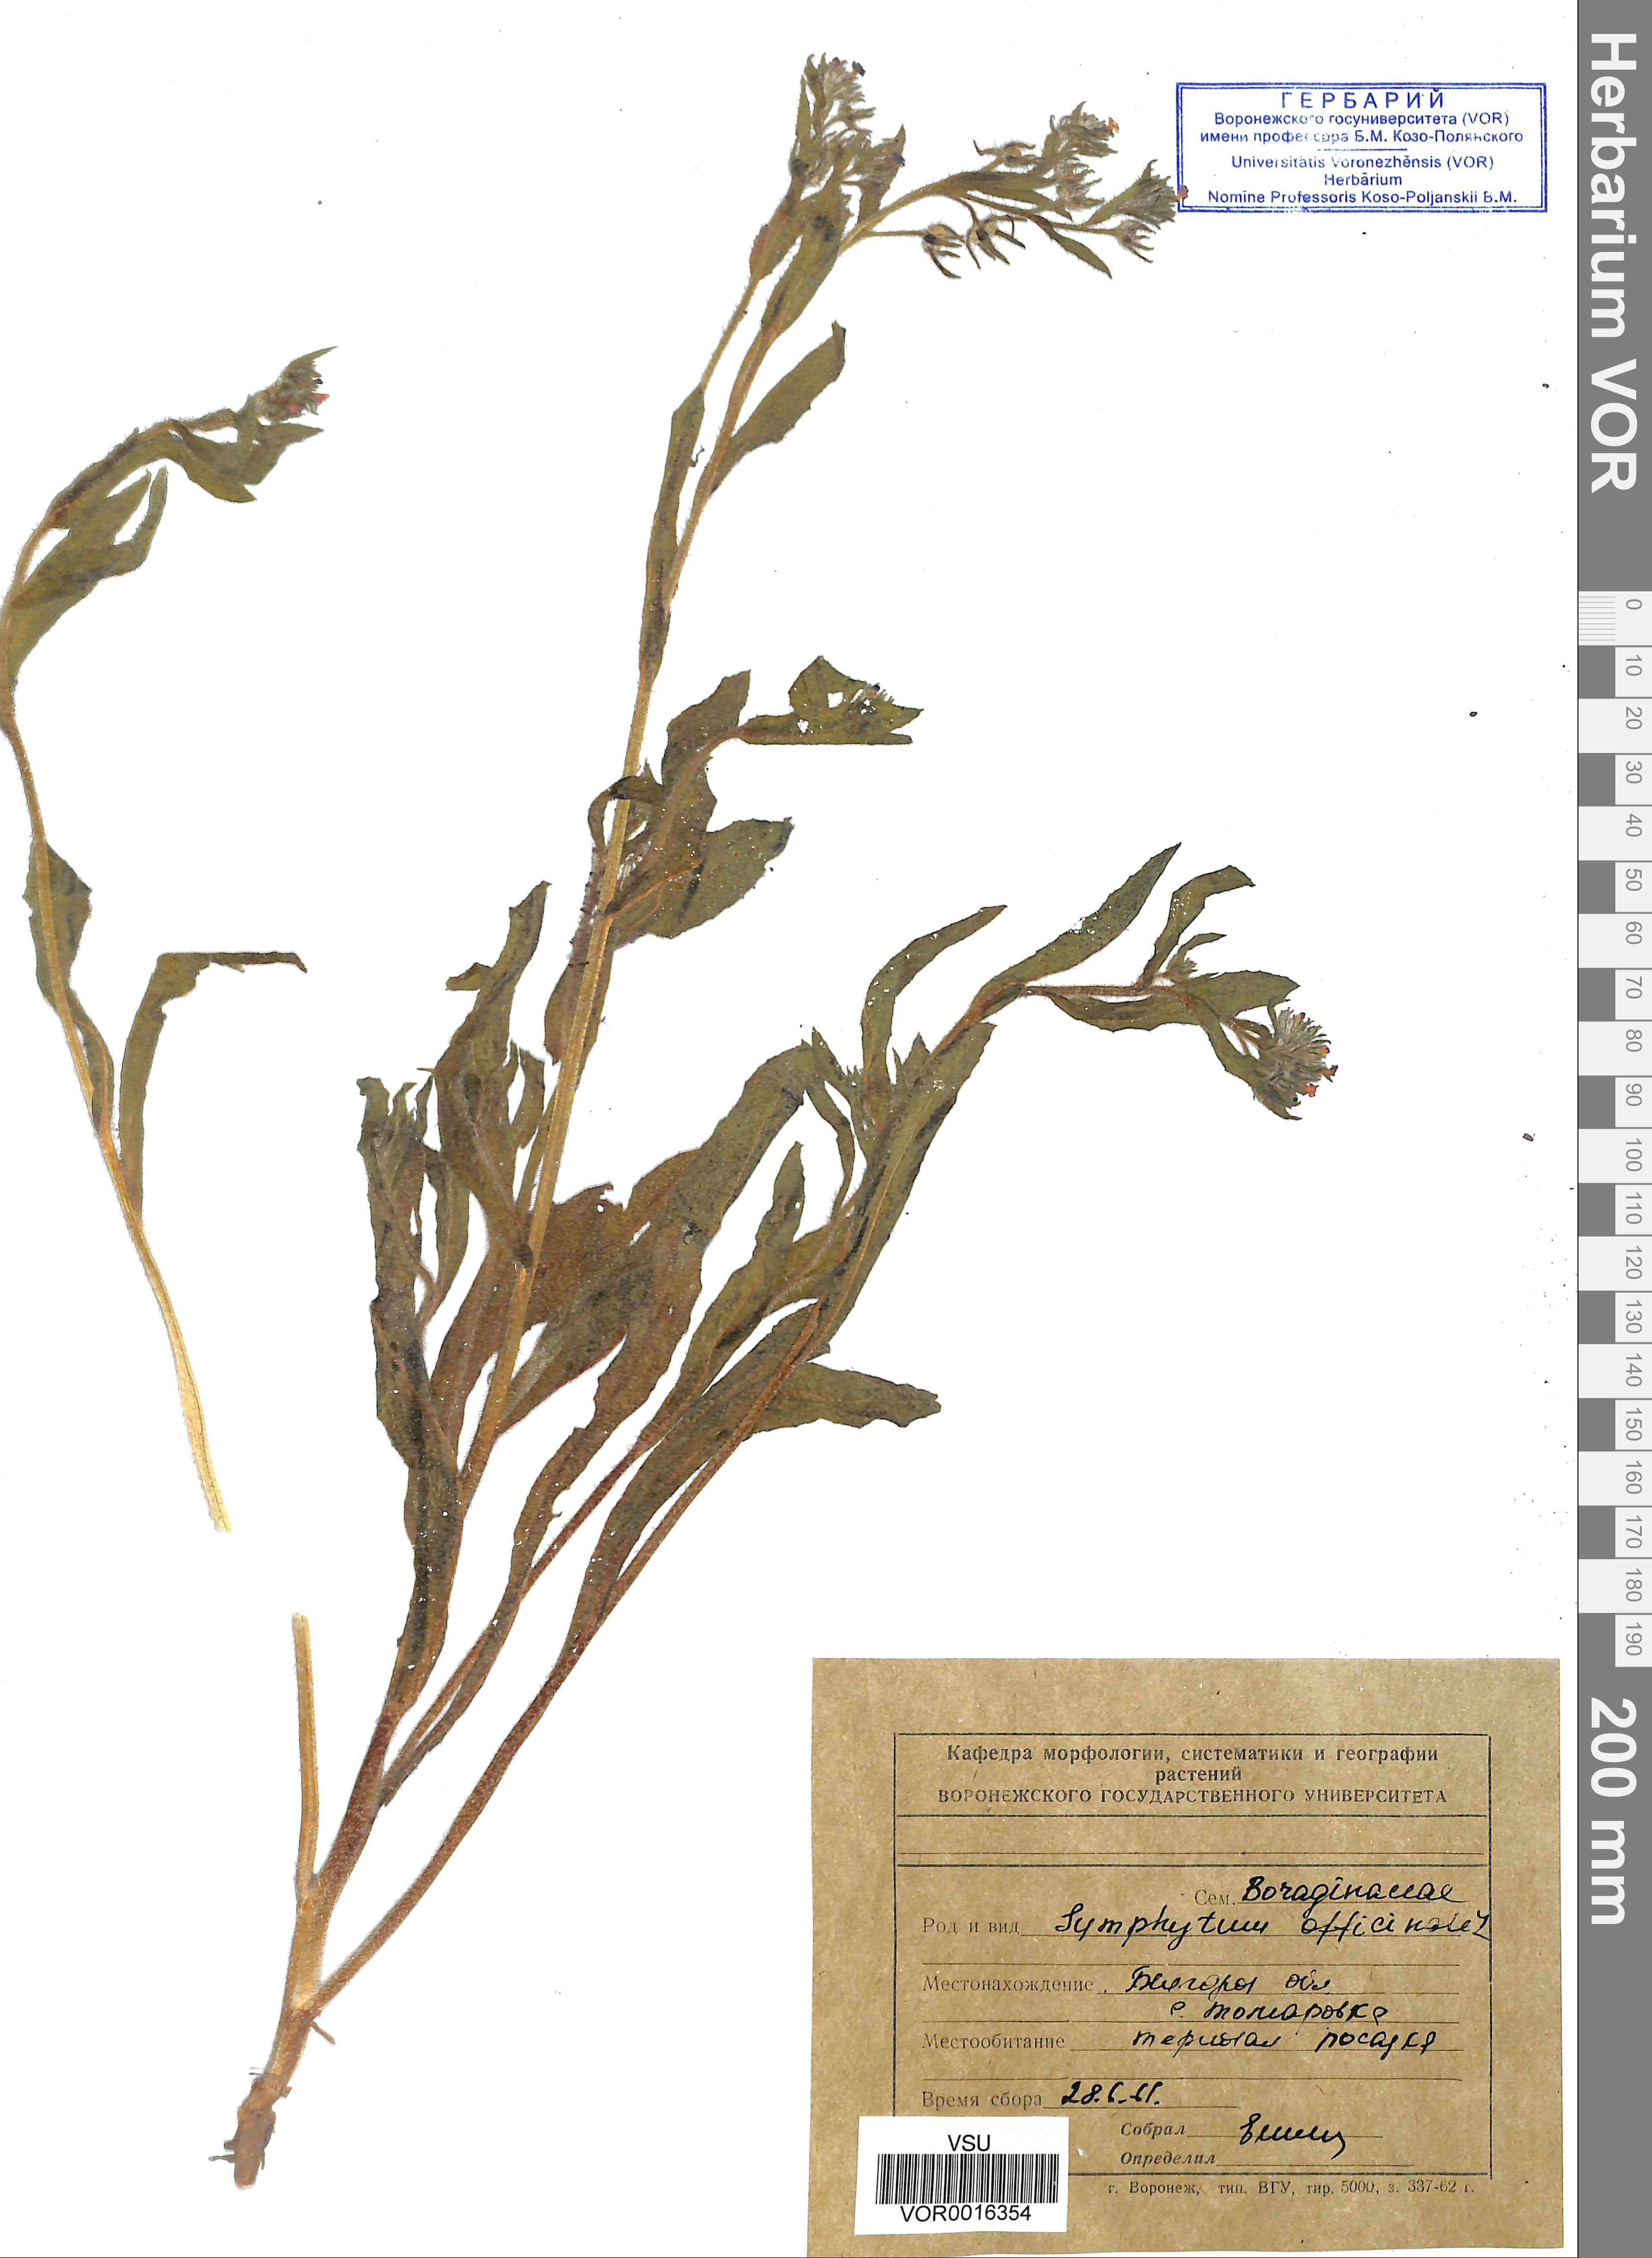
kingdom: Plantae
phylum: Tracheophyta
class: Magnoliopsida
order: Boraginales
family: Boraginaceae
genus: Symphytum
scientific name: Symphytum officinale
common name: Common comfrey
